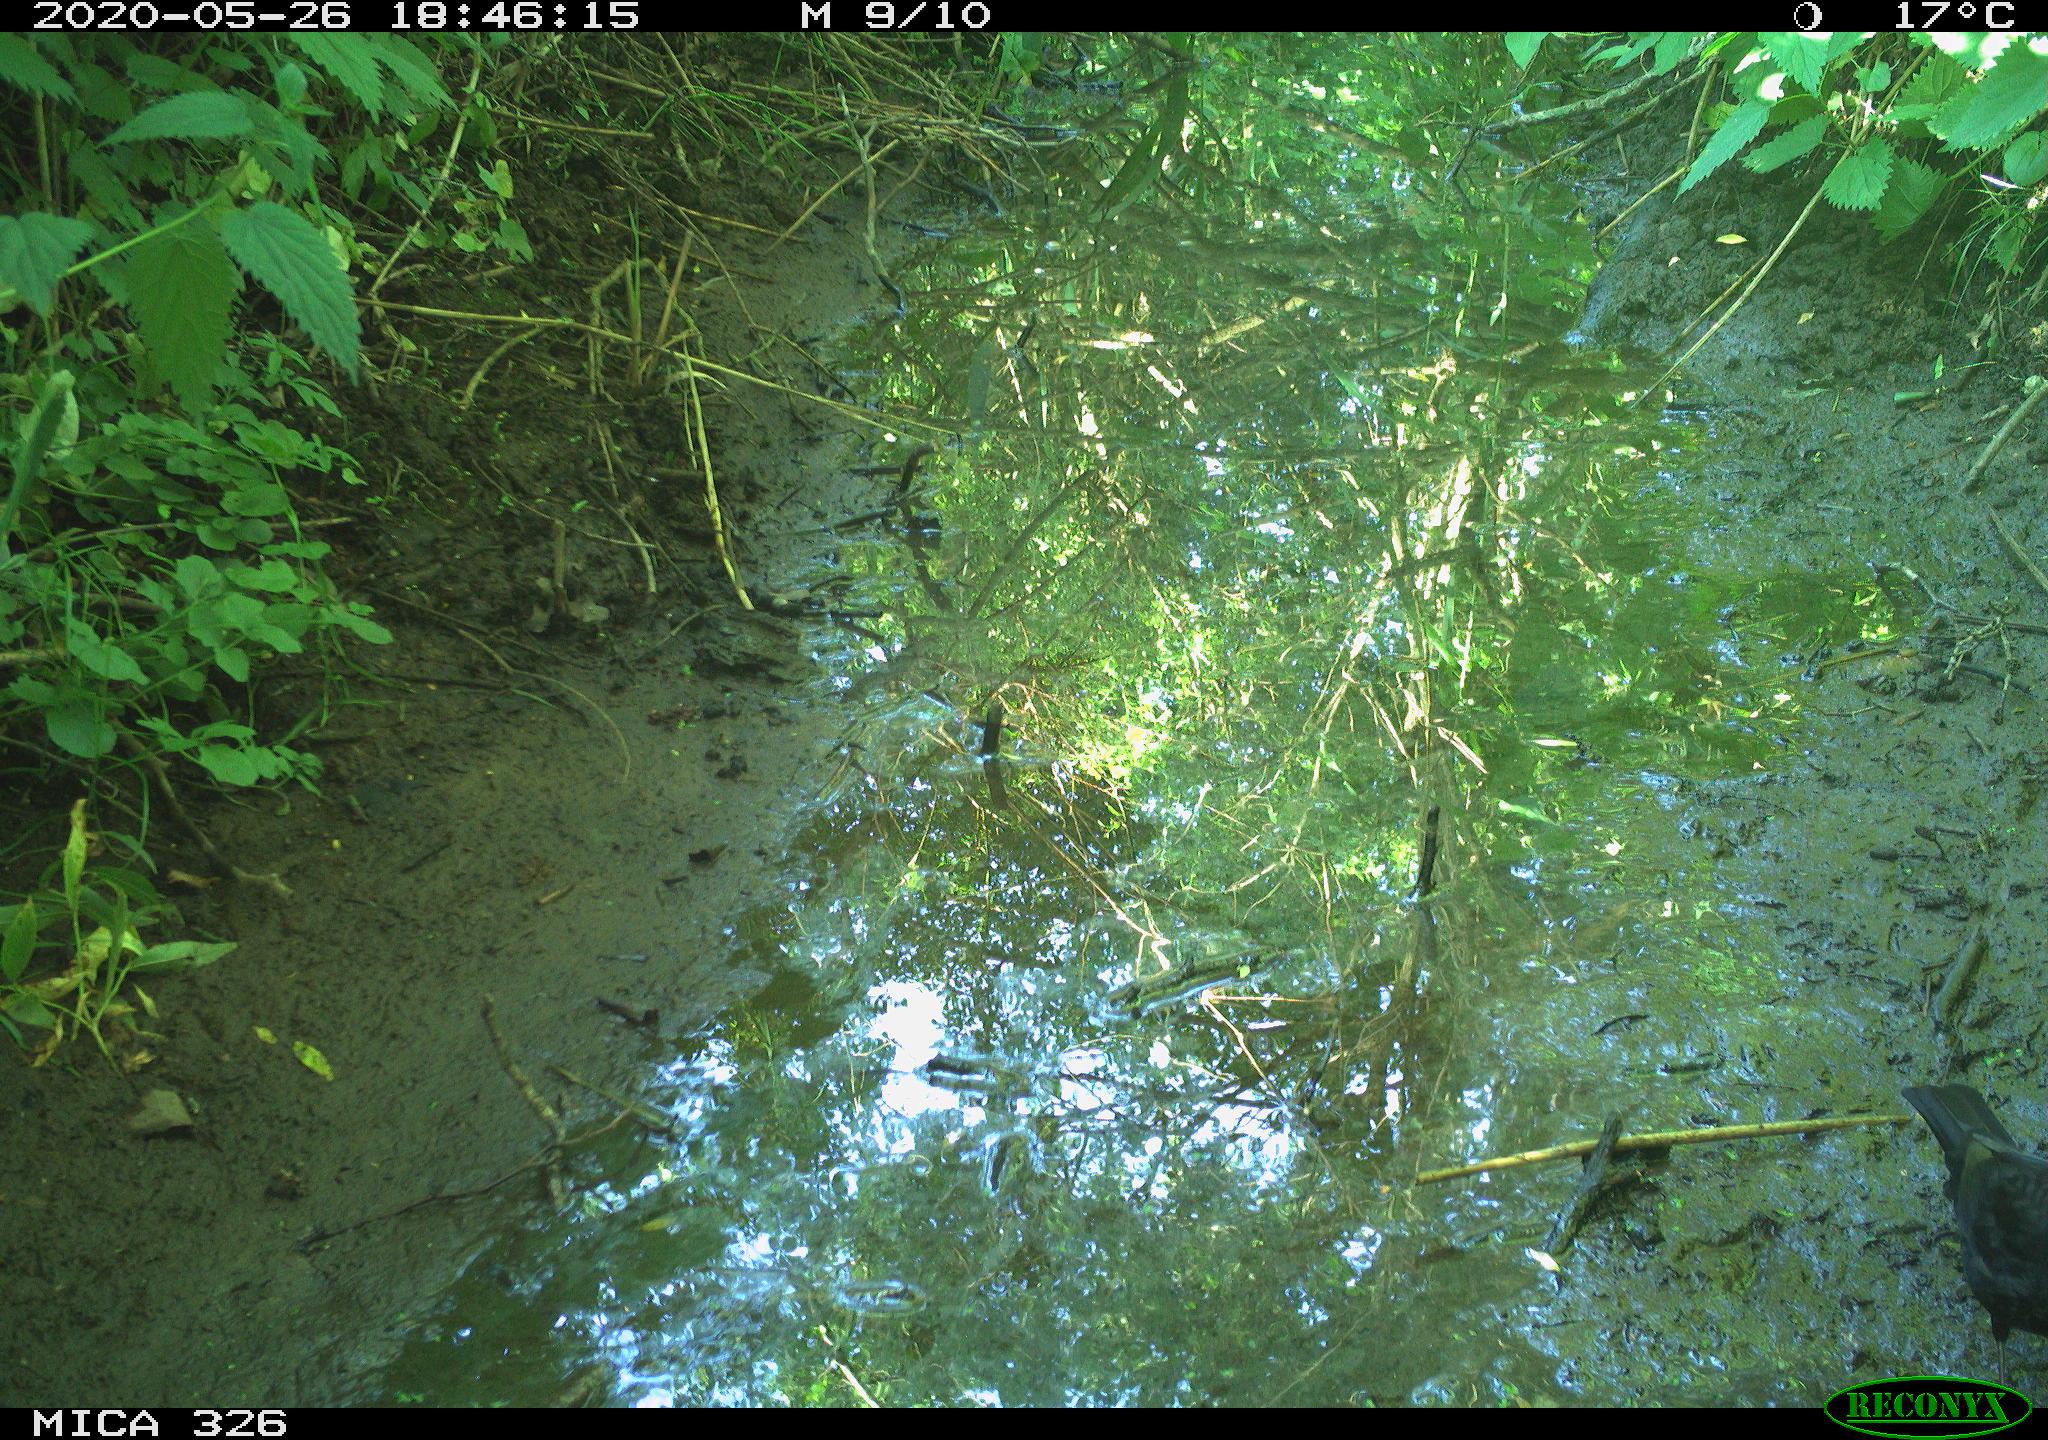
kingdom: Animalia
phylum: Chordata
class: Aves
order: Passeriformes
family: Turdidae
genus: Turdus
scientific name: Turdus merula
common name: Common blackbird
